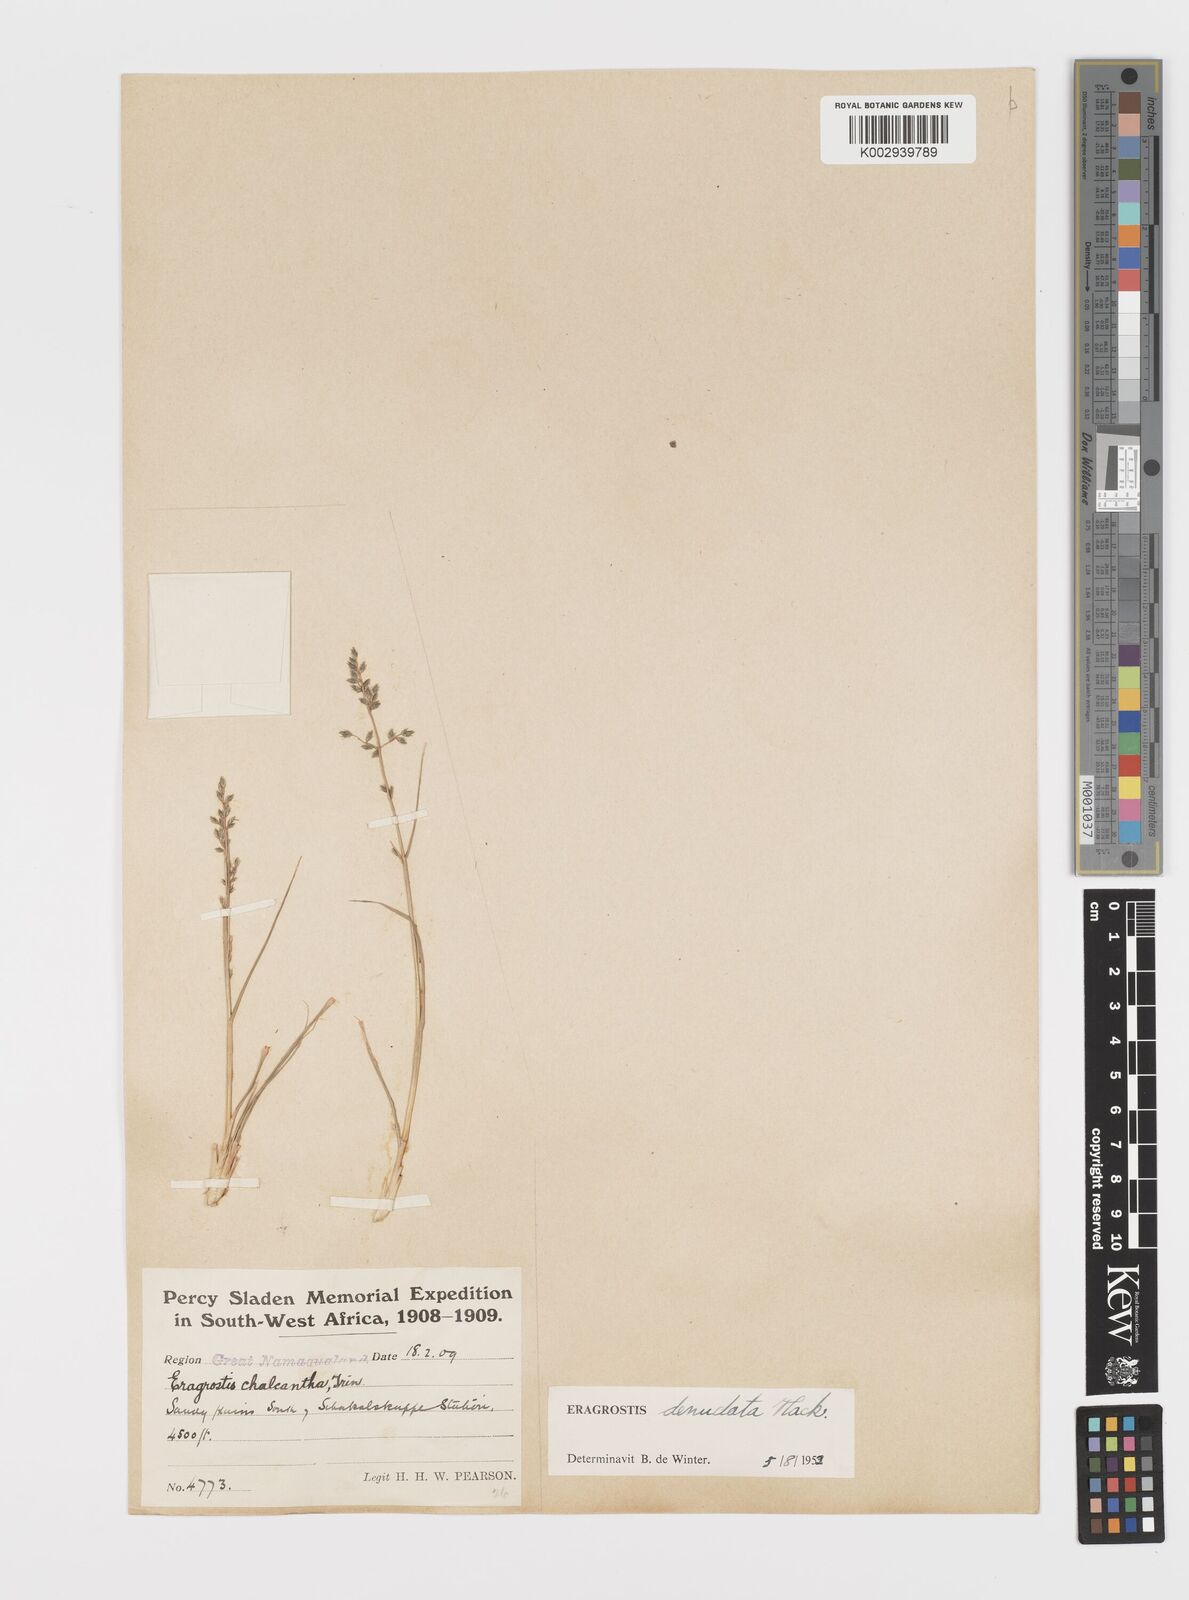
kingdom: Plantae
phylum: Tracheophyta
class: Liliopsida
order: Poales
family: Poaceae
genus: Eragrostis
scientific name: Eragrostis nindensis
